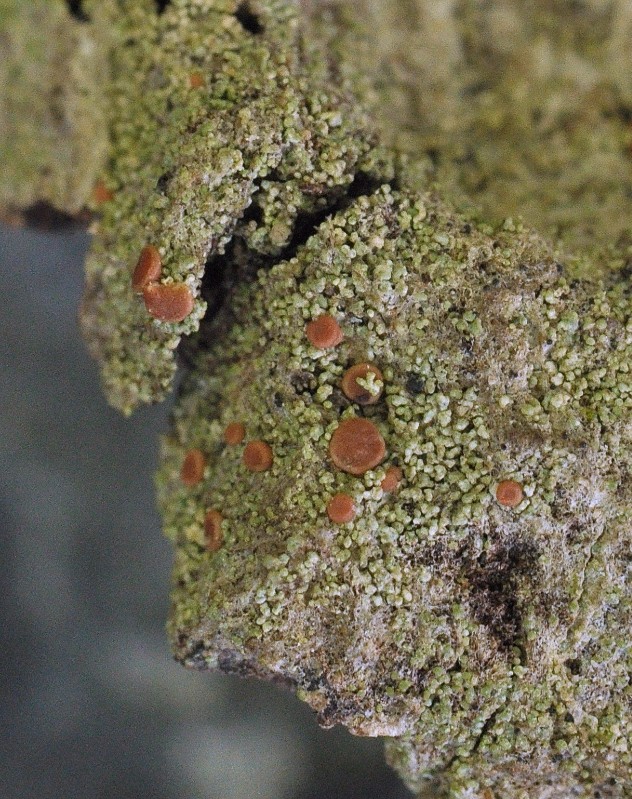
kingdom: Fungi
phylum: Ascomycota
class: Lecanoromycetes
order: Lecanorales
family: Ramalinaceae
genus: Bacidia
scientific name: Bacidia rubella
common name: rødbrun tensporelav
